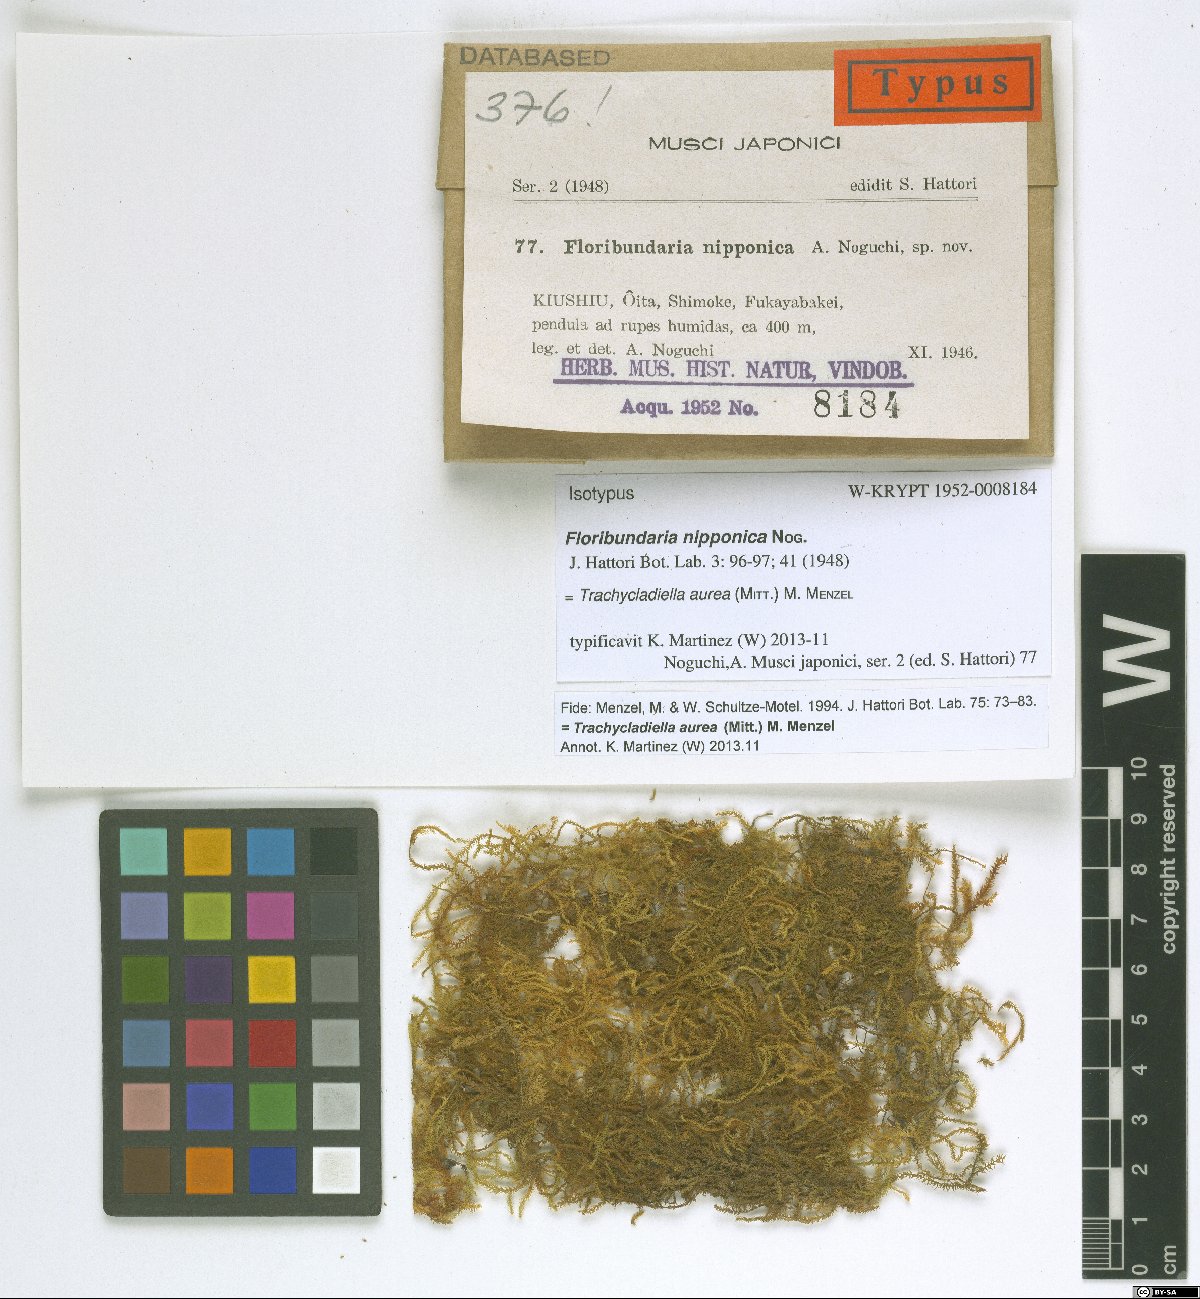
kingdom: Plantae
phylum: Bryophyta
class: Bryopsida
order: Hypnales
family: Meteoriaceae
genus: Trachycladiella
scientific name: Trachycladiella aurea
